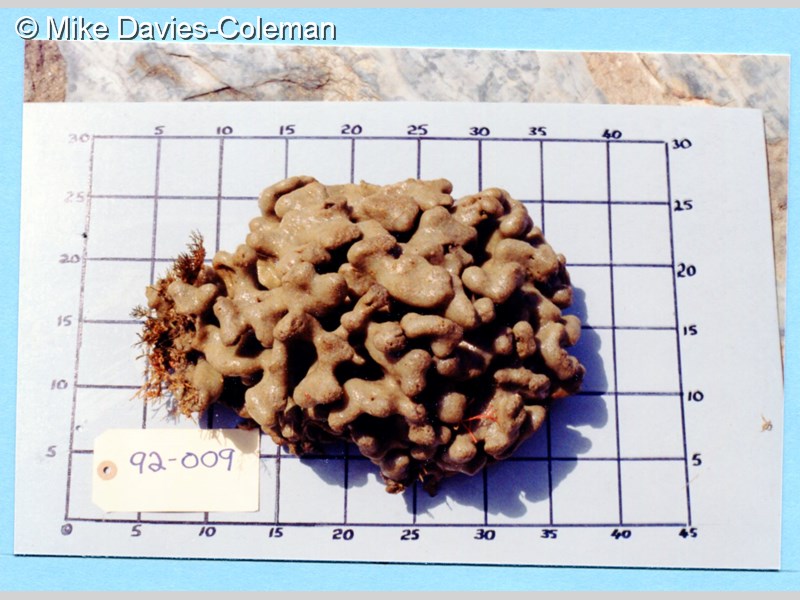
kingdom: Animalia
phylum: Chordata
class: Ascidiacea
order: Aplousobranchia
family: Polyclinidae
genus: Aplidium
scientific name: Aplidium
